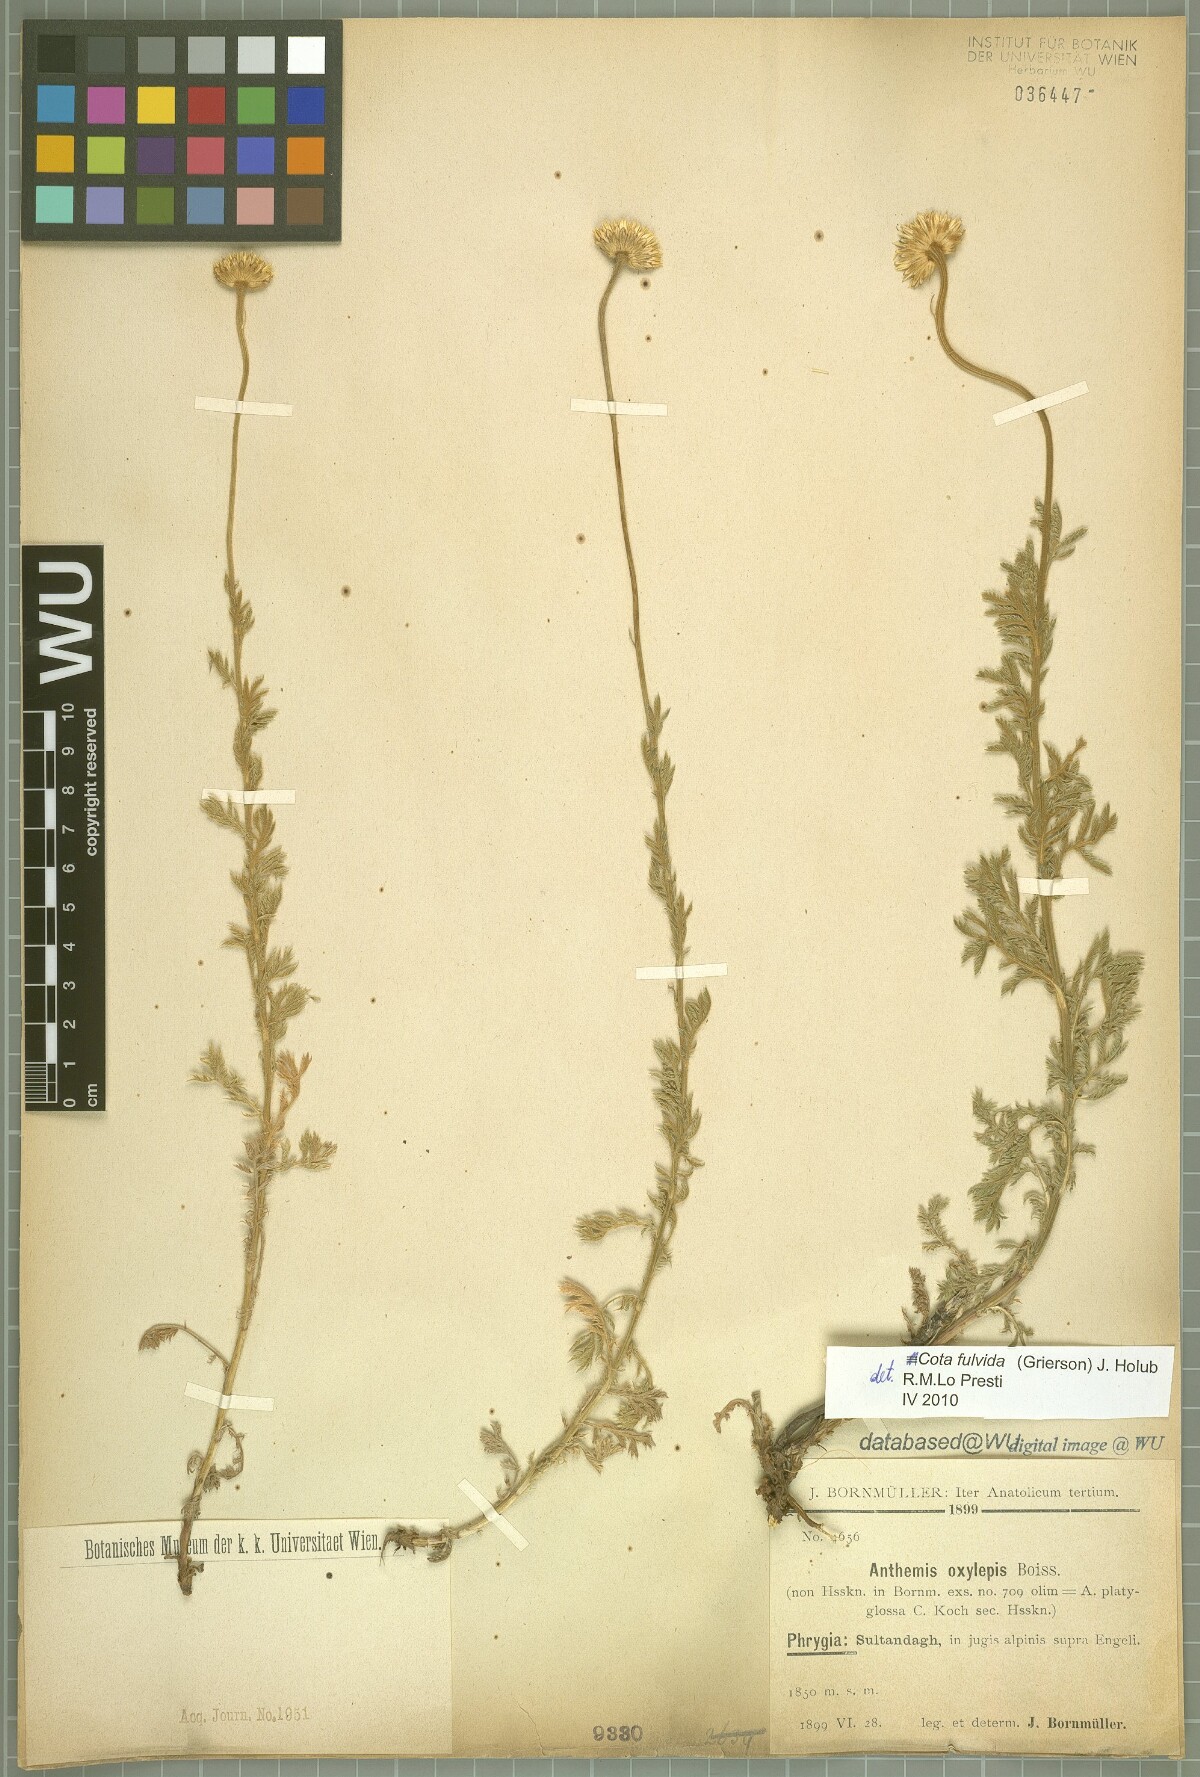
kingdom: Plantae
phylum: Tracheophyta
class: Magnoliopsida
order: Asterales
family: Asteraceae
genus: Cota
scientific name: Cota fulvida
